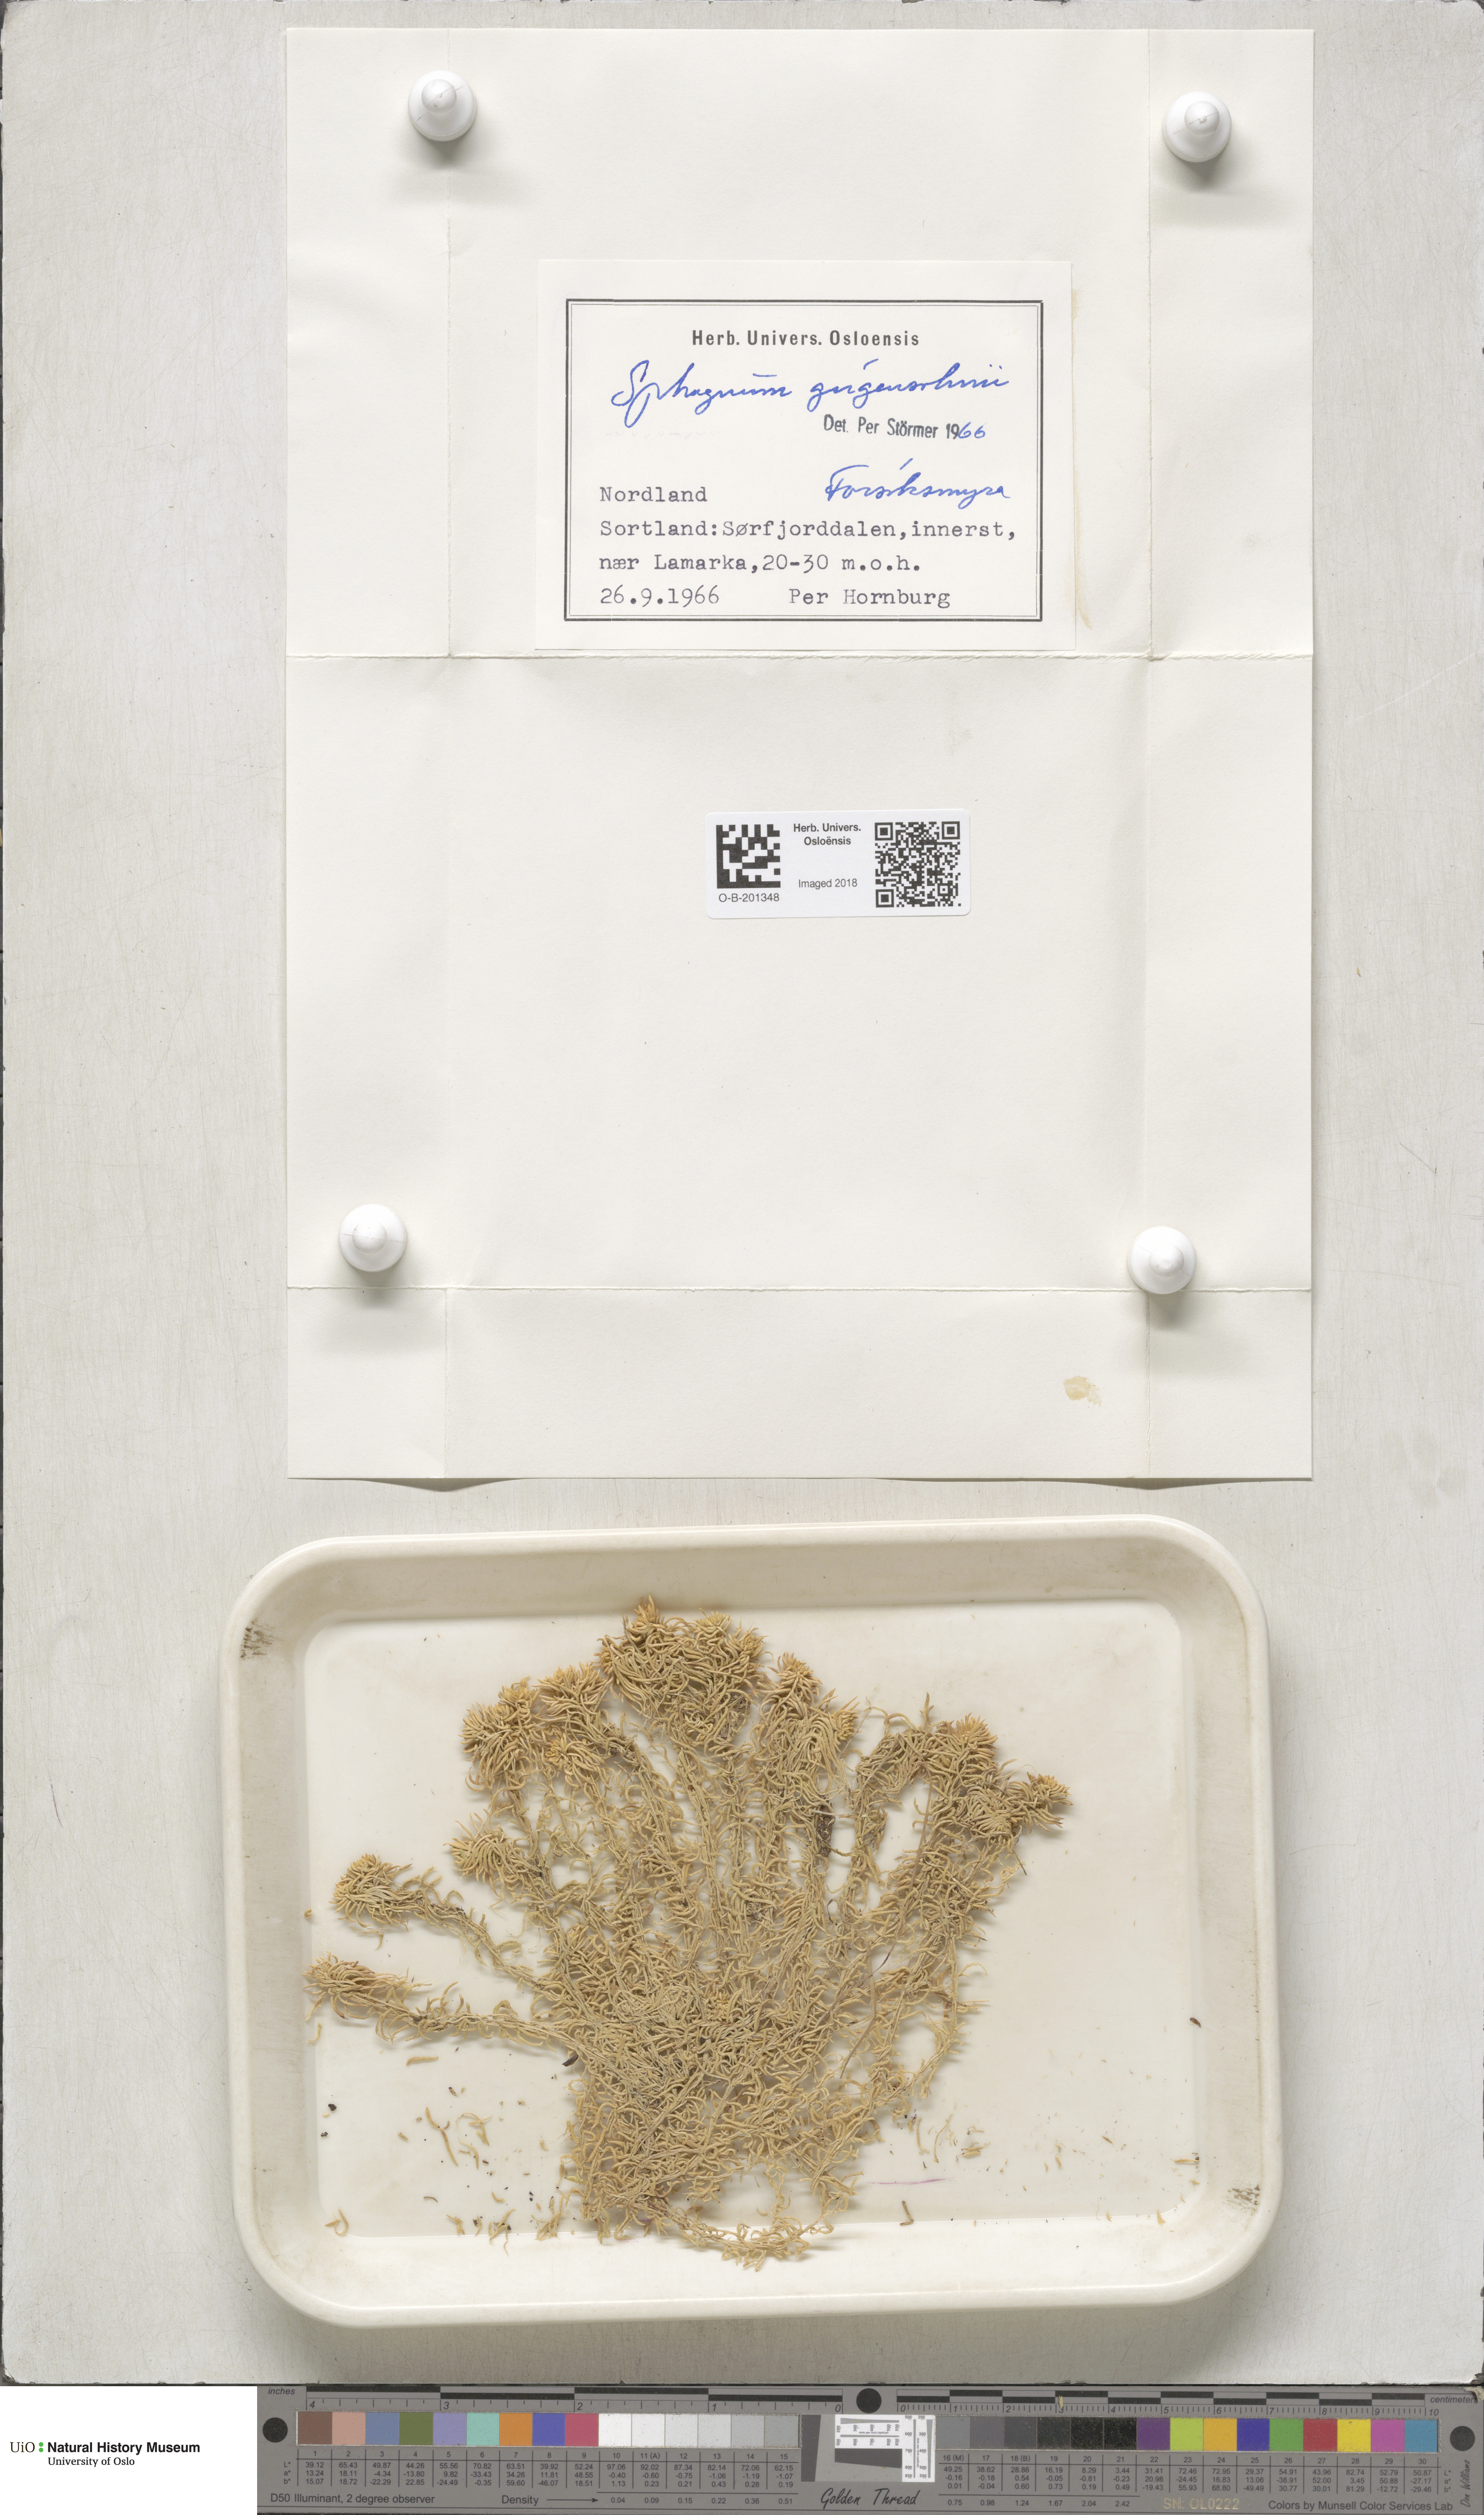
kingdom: Plantae
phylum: Bryophyta
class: Sphagnopsida
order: Sphagnales
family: Sphagnaceae
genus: Sphagnum
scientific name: Sphagnum girgensohnii
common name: Girgensohn's peat moss
